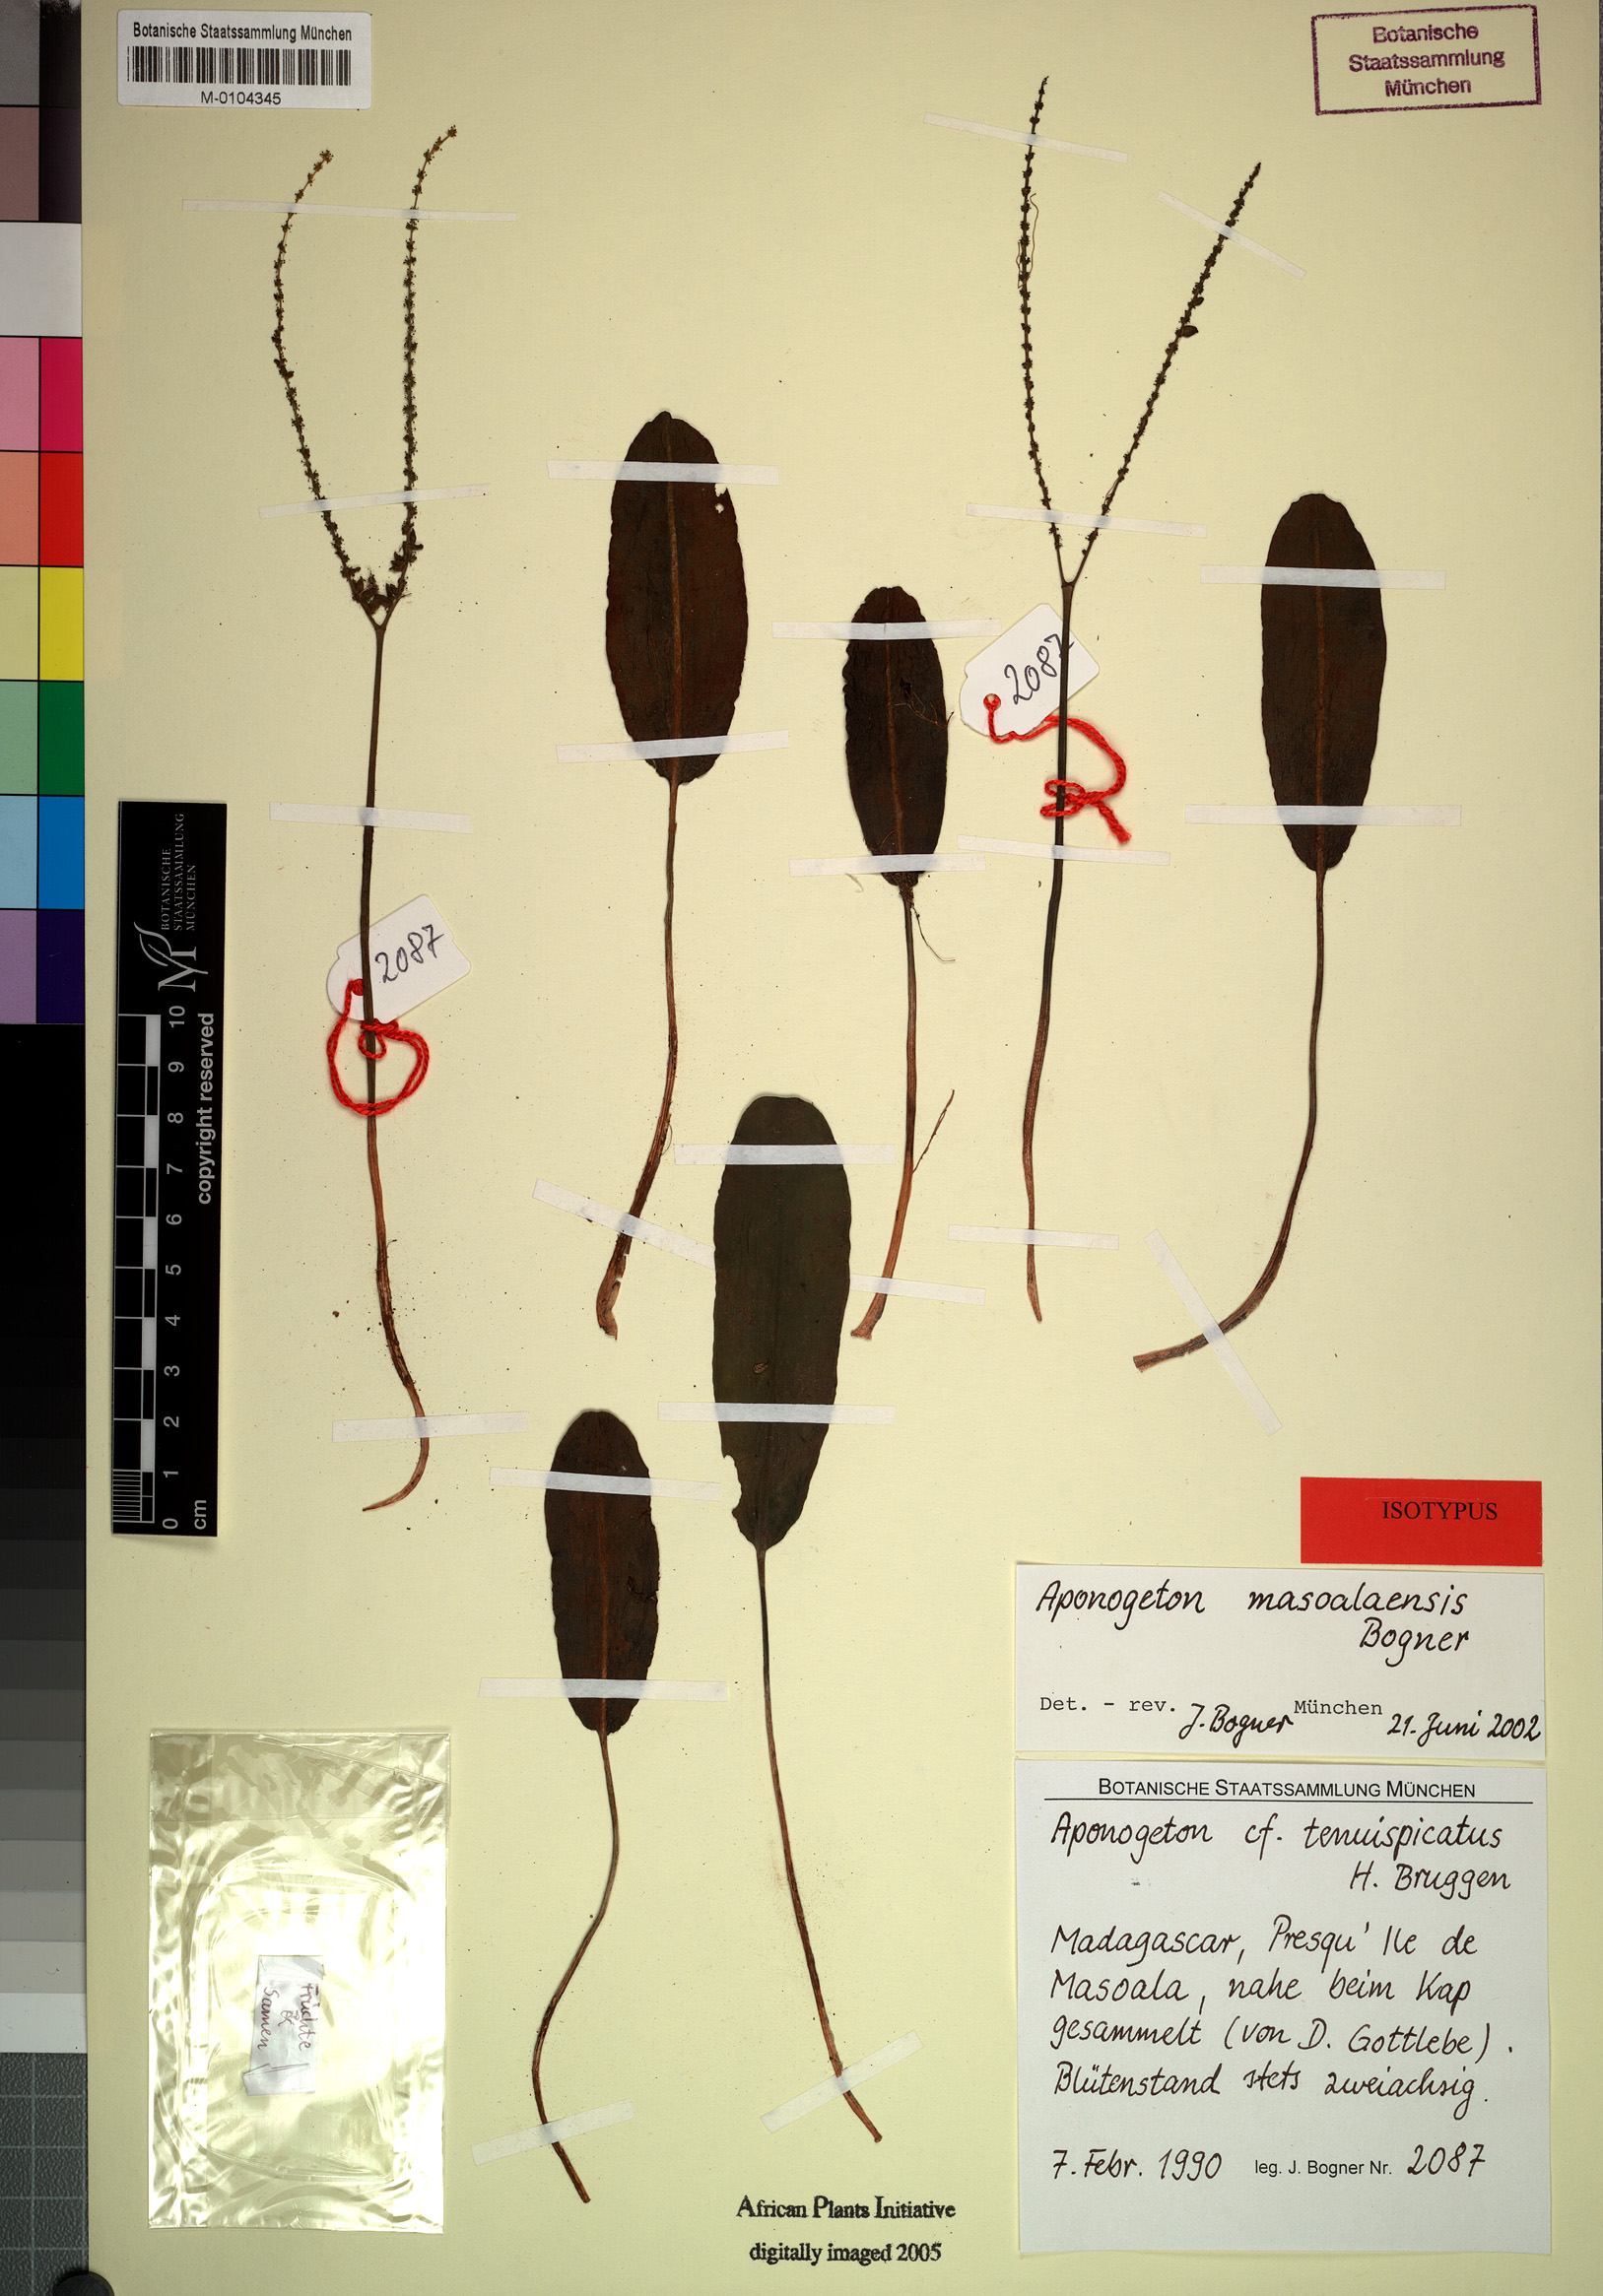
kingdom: Plantae
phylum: Tracheophyta
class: Liliopsida
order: Alismatales
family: Aponogetonaceae
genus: Aponogeton
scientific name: Aponogeton masoalaensis
